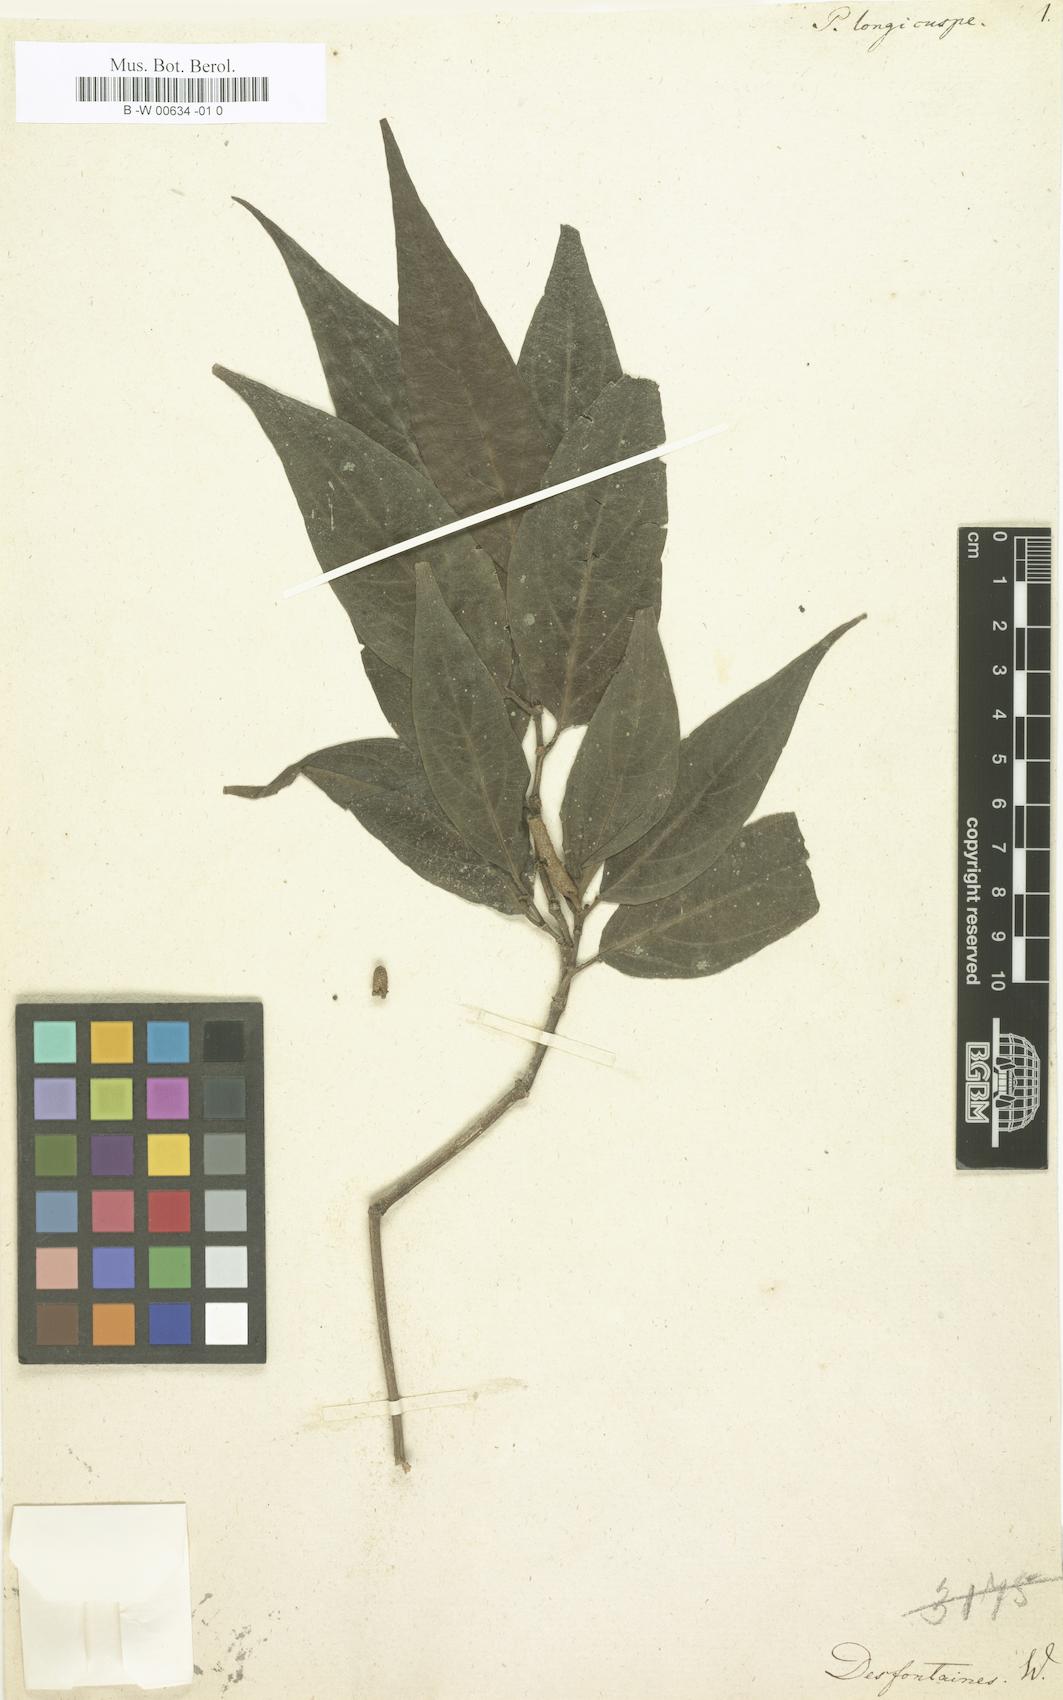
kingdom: Plantae
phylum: Tracheophyta
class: Magnoliopsida
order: Piperales
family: Piperaceae
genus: Piper
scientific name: Piper jacquemontianum
